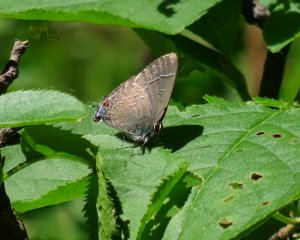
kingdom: Animalia
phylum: Arthropoda
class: Insecta
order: Lepidoptera
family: Lycaenidae
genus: Satyrium
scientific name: Satyrium calanus
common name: Banded Hairstreak
